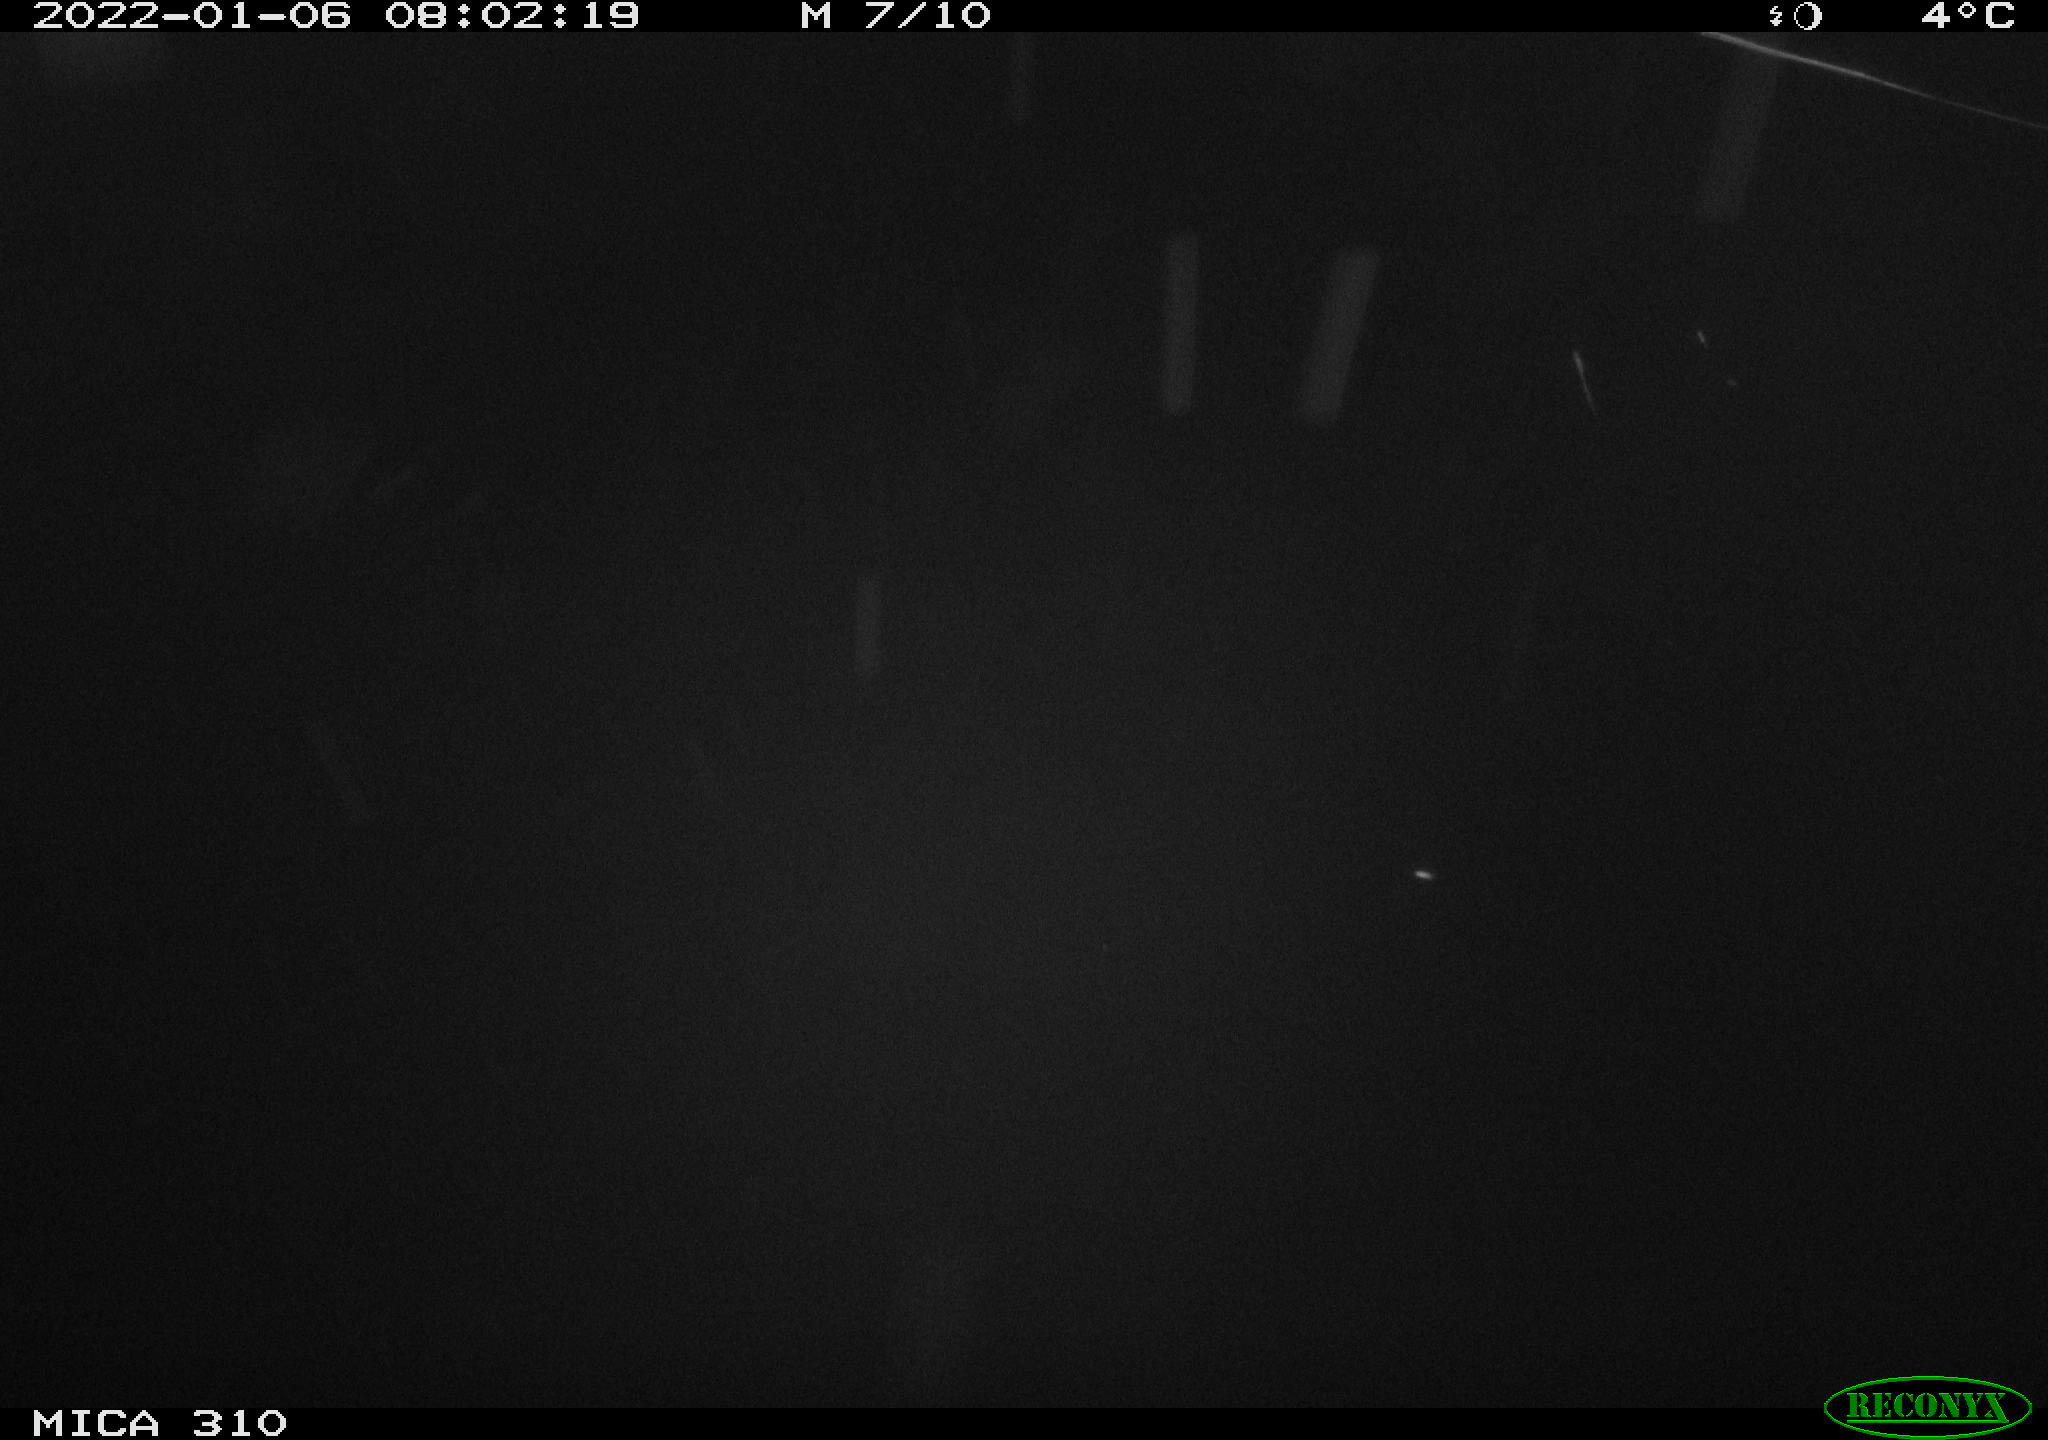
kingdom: Animalia
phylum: Chordata
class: Aves
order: Anseriformes
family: Anatidae
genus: Anas
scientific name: Anas
